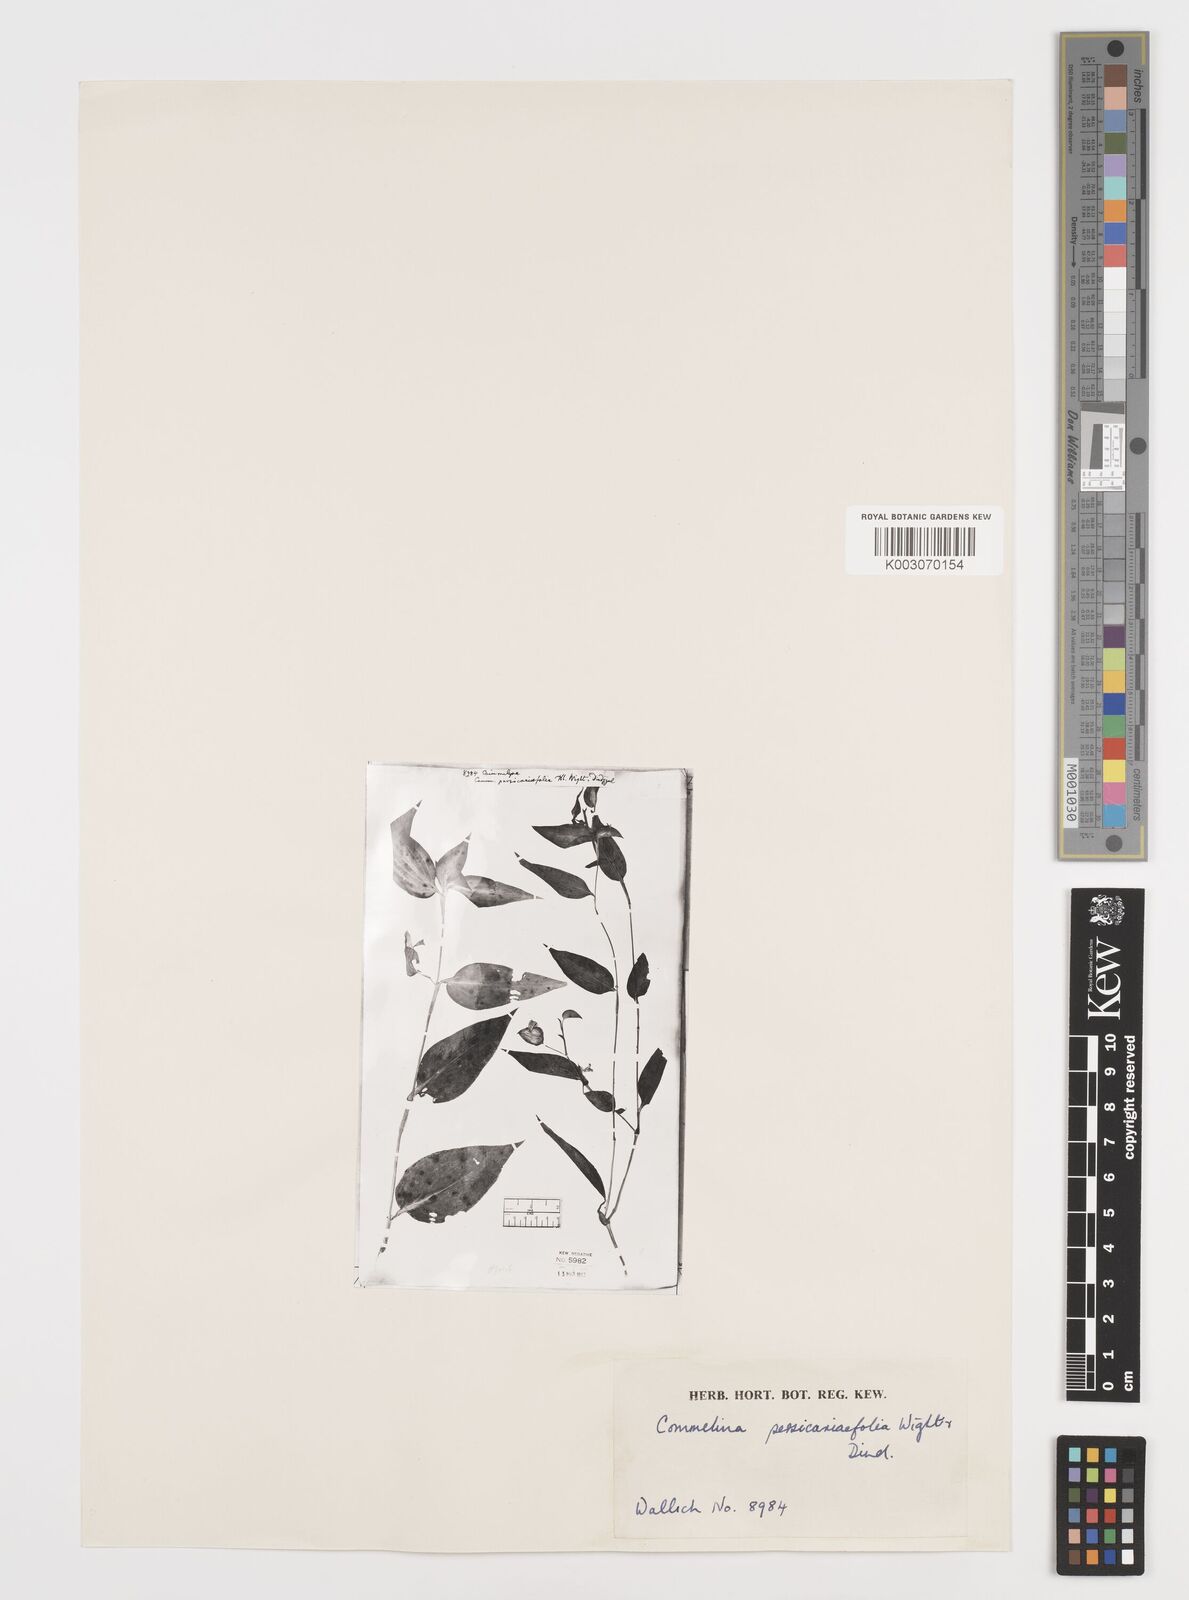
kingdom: Plantae
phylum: Tracheophyta
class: Liliopsida
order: Commelinales
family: Commelinaceae
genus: Commelina
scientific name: Commelina petersii
